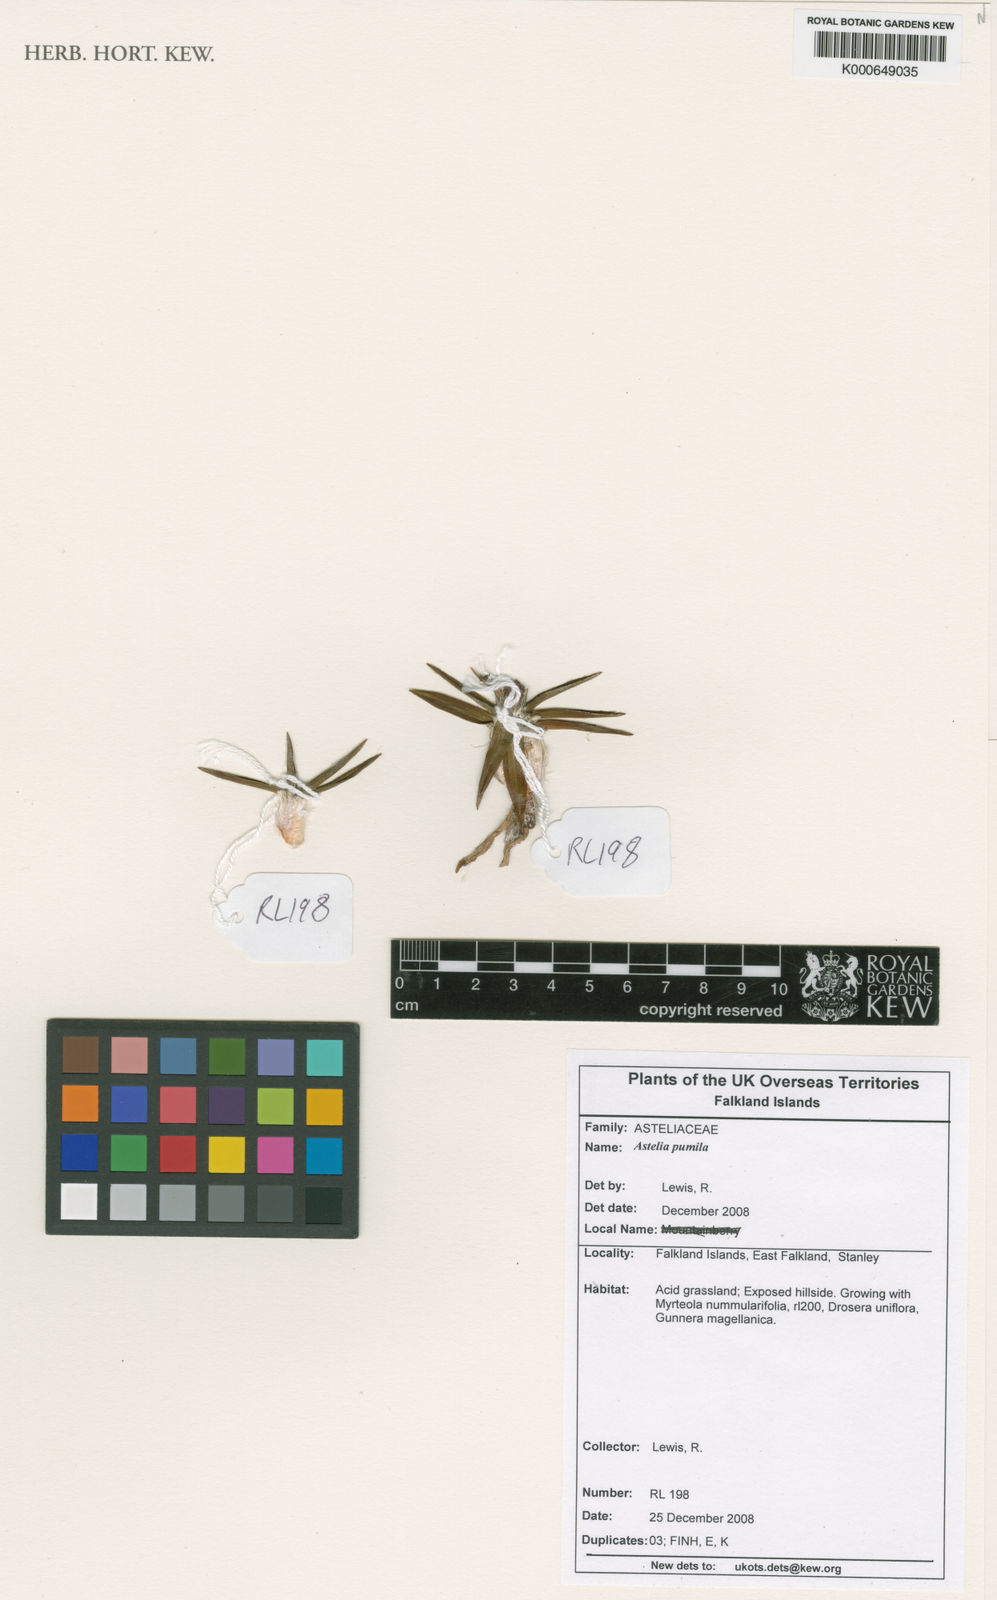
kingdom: Plantae
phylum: Tracheophyta
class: Liliopsida
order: Asparagales
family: Asteliaceae
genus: Astelia
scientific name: Astelia pumila
